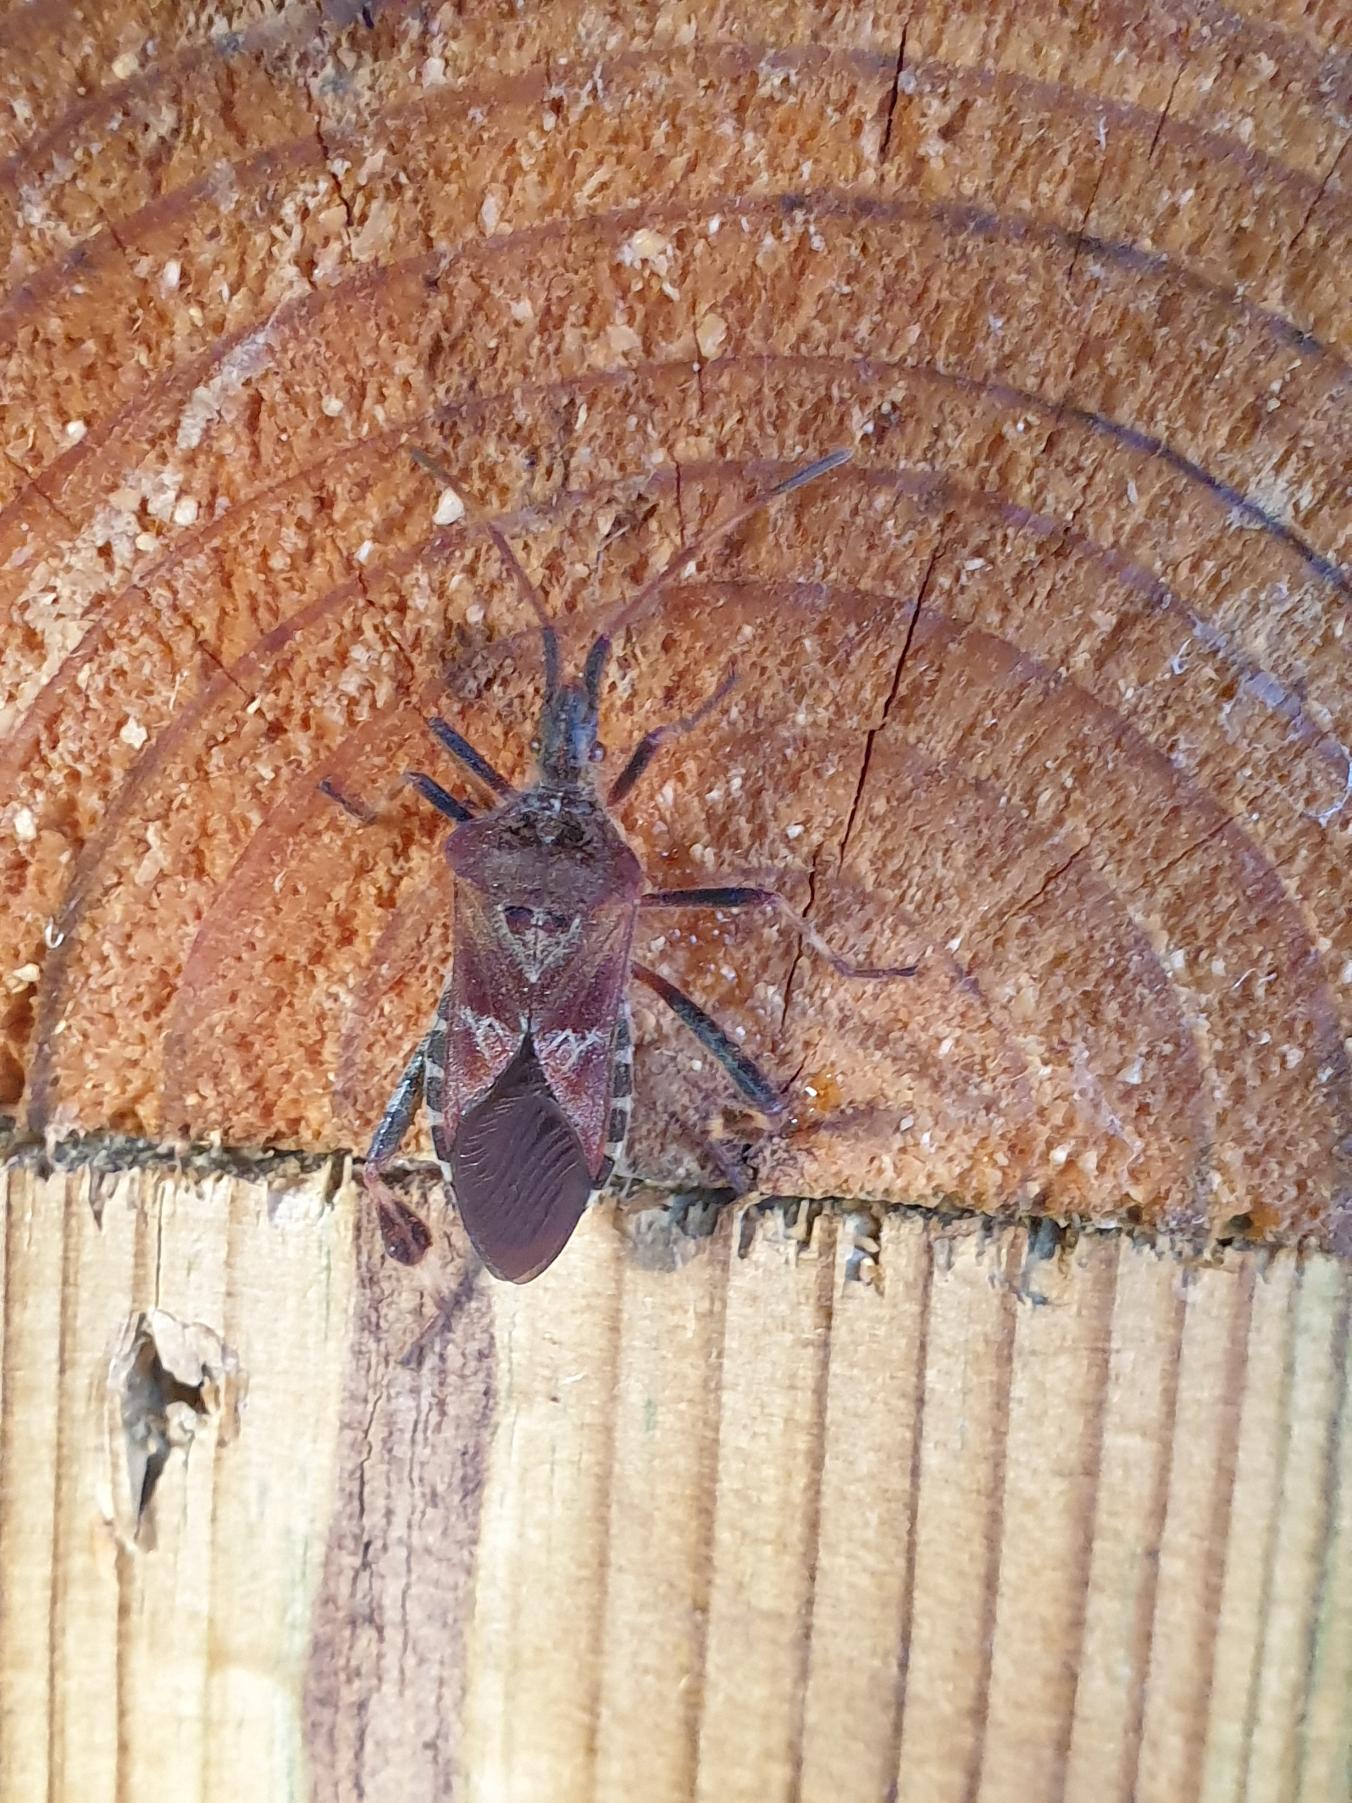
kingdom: Animalia
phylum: Arthropoda
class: Insecta
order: Hemiptera
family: Coreidae
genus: Leptoglossus
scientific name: Leptoglossus occidentalis
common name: Amerikansk fyrretæge
